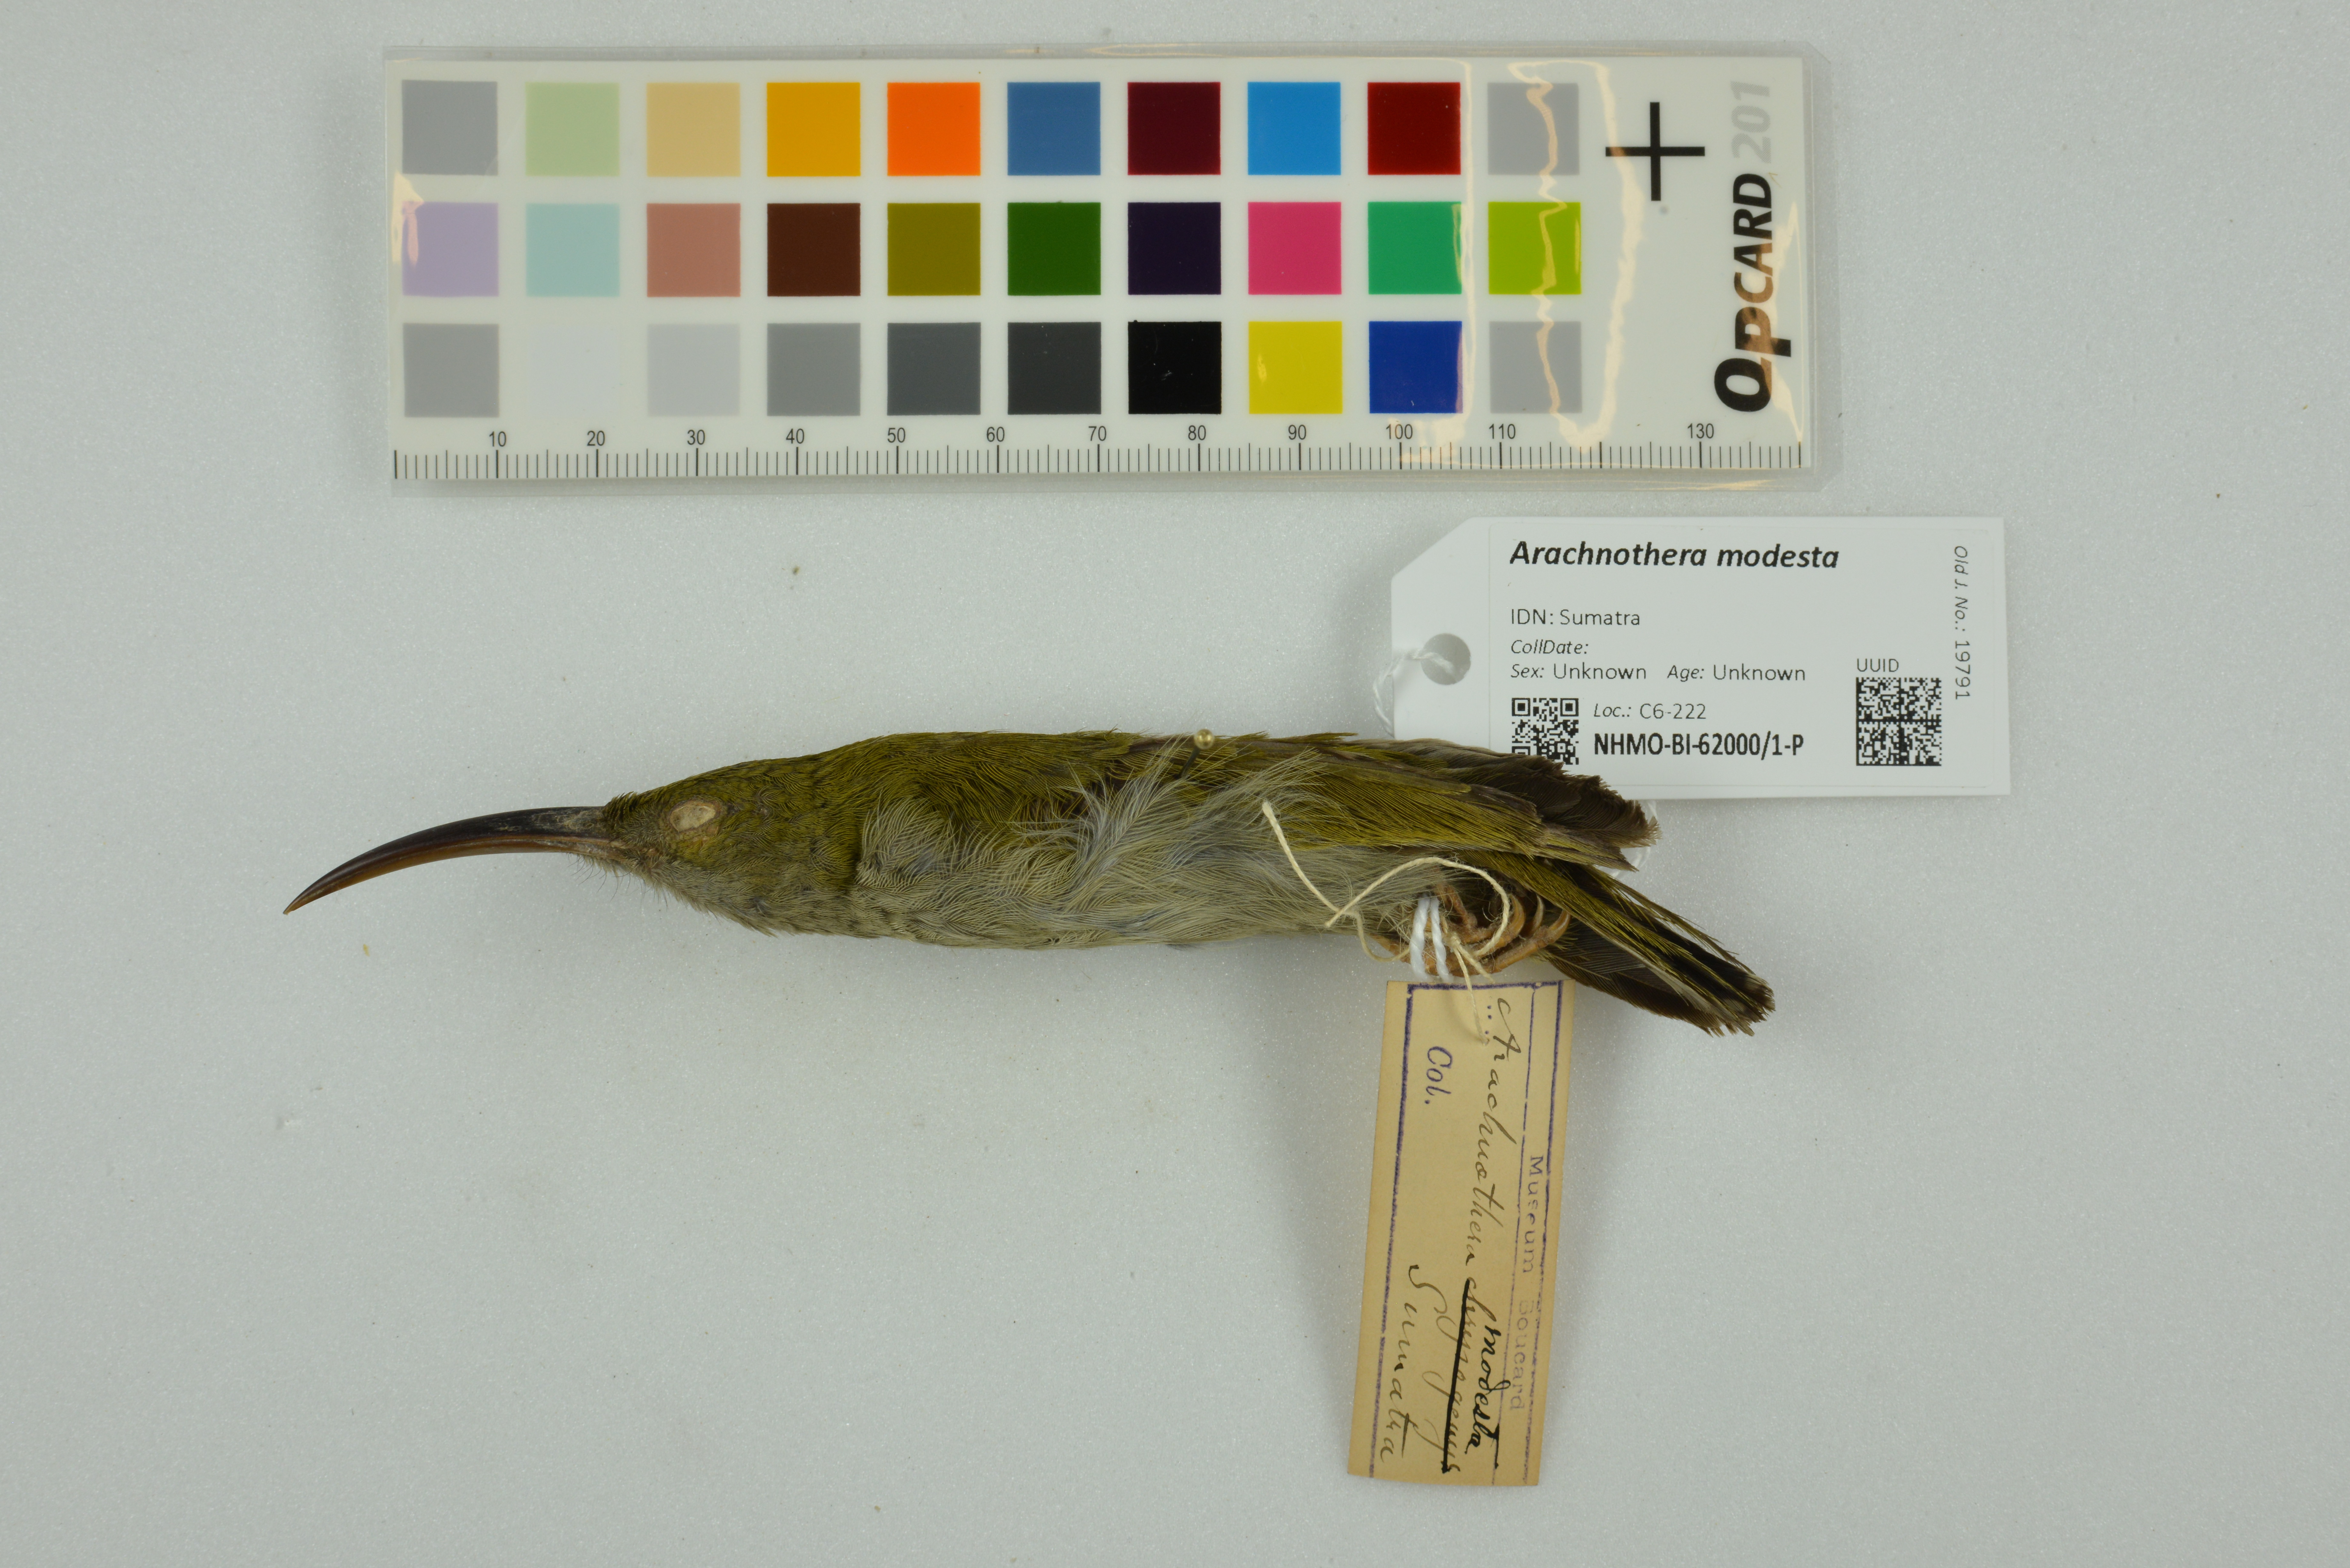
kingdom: Animalia
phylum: Chordata
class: Aves
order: Passeriformes
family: Nectariniidae
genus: Arachnothera
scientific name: Arachnothera modesta
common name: Grey-breasted spiderhunter
